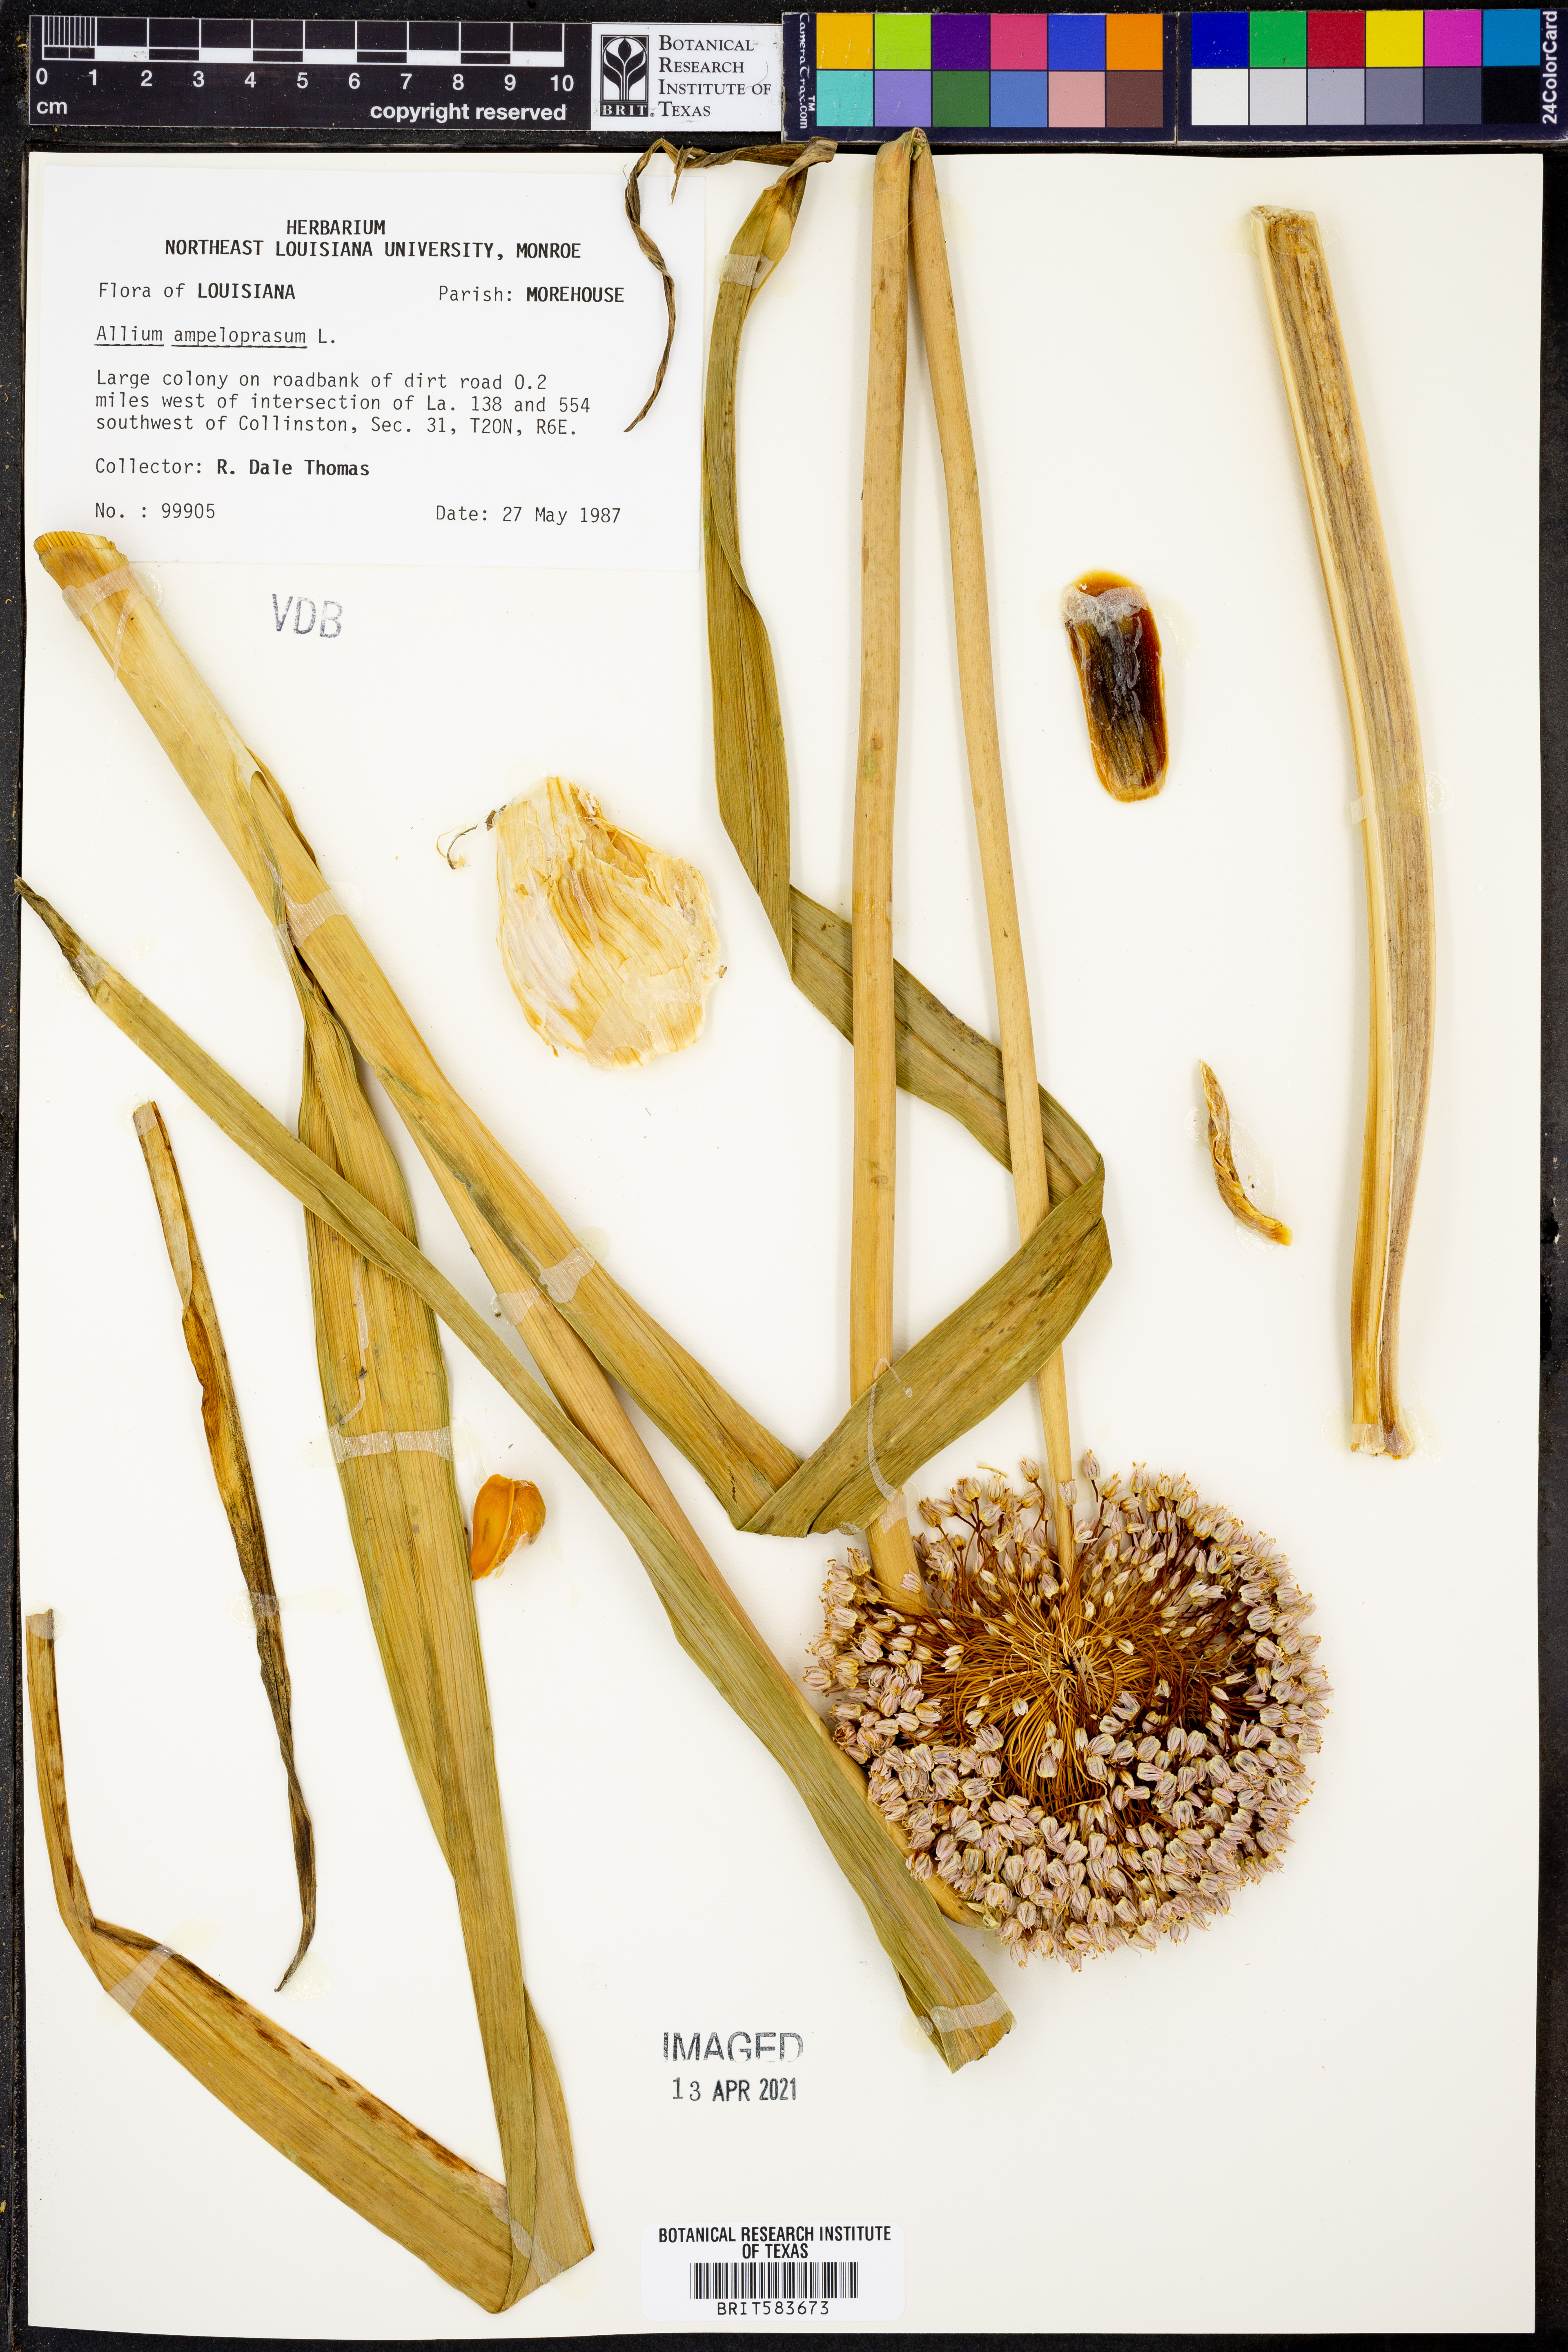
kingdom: Plantae
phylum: Tracheophyta
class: Liliopsida
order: Asparagales
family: Amaryllidaceae
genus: Allium
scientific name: Allium ampeloprasum
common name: Wild leek
